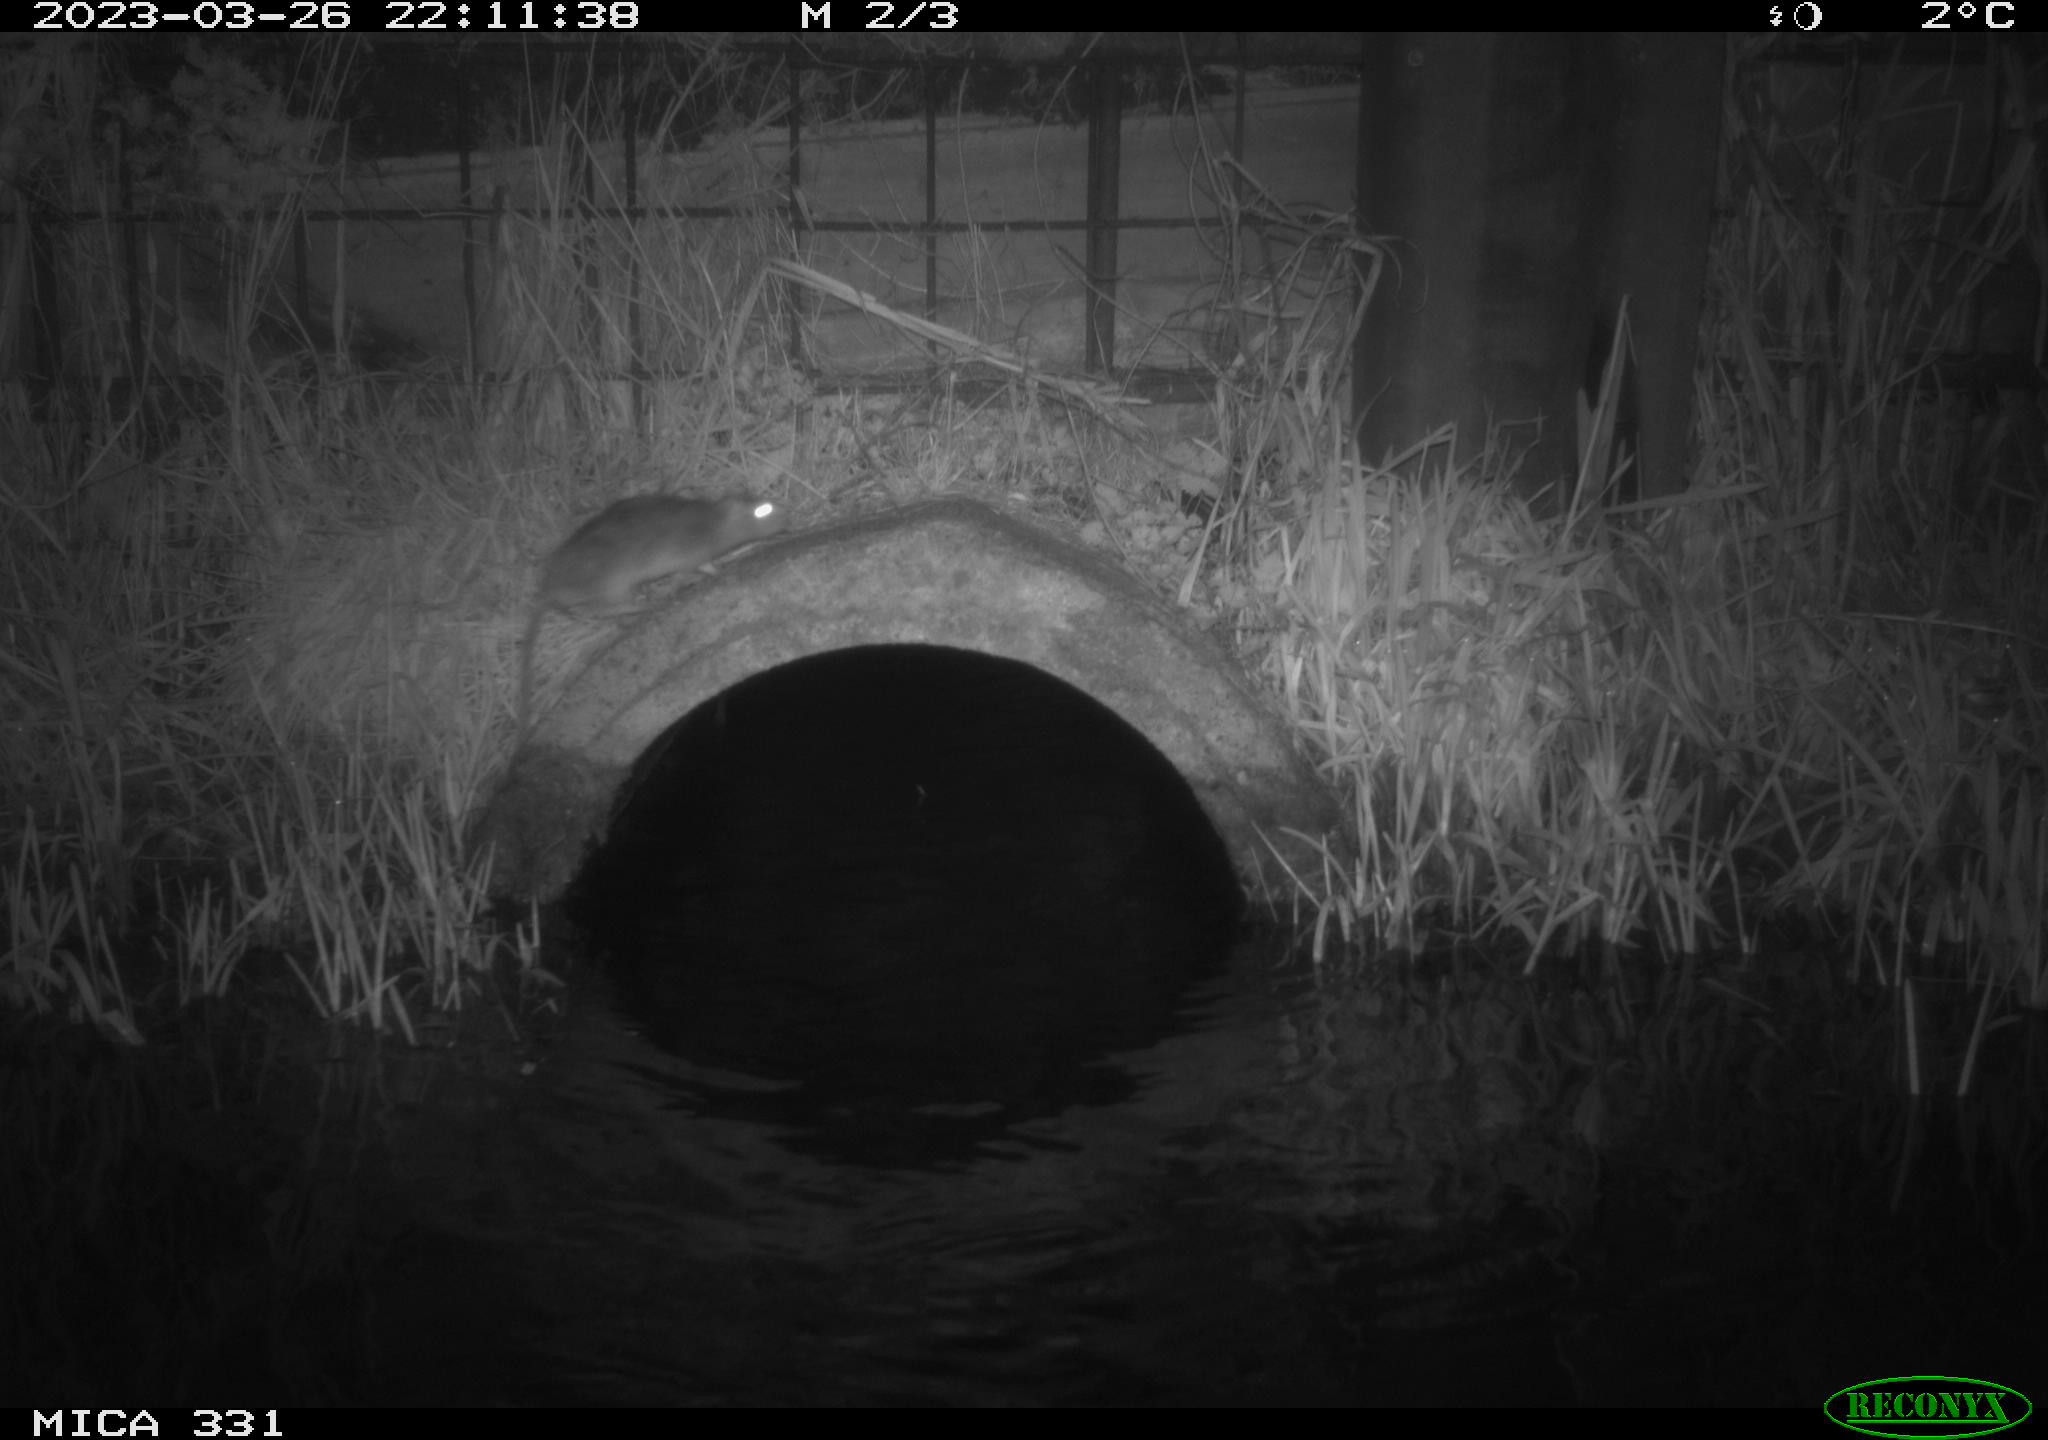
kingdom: Animalia
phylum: Chordata
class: Mammalia
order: Rodentia
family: Muridae
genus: Rattus
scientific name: Rattus norvegicus
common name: Brown rat
